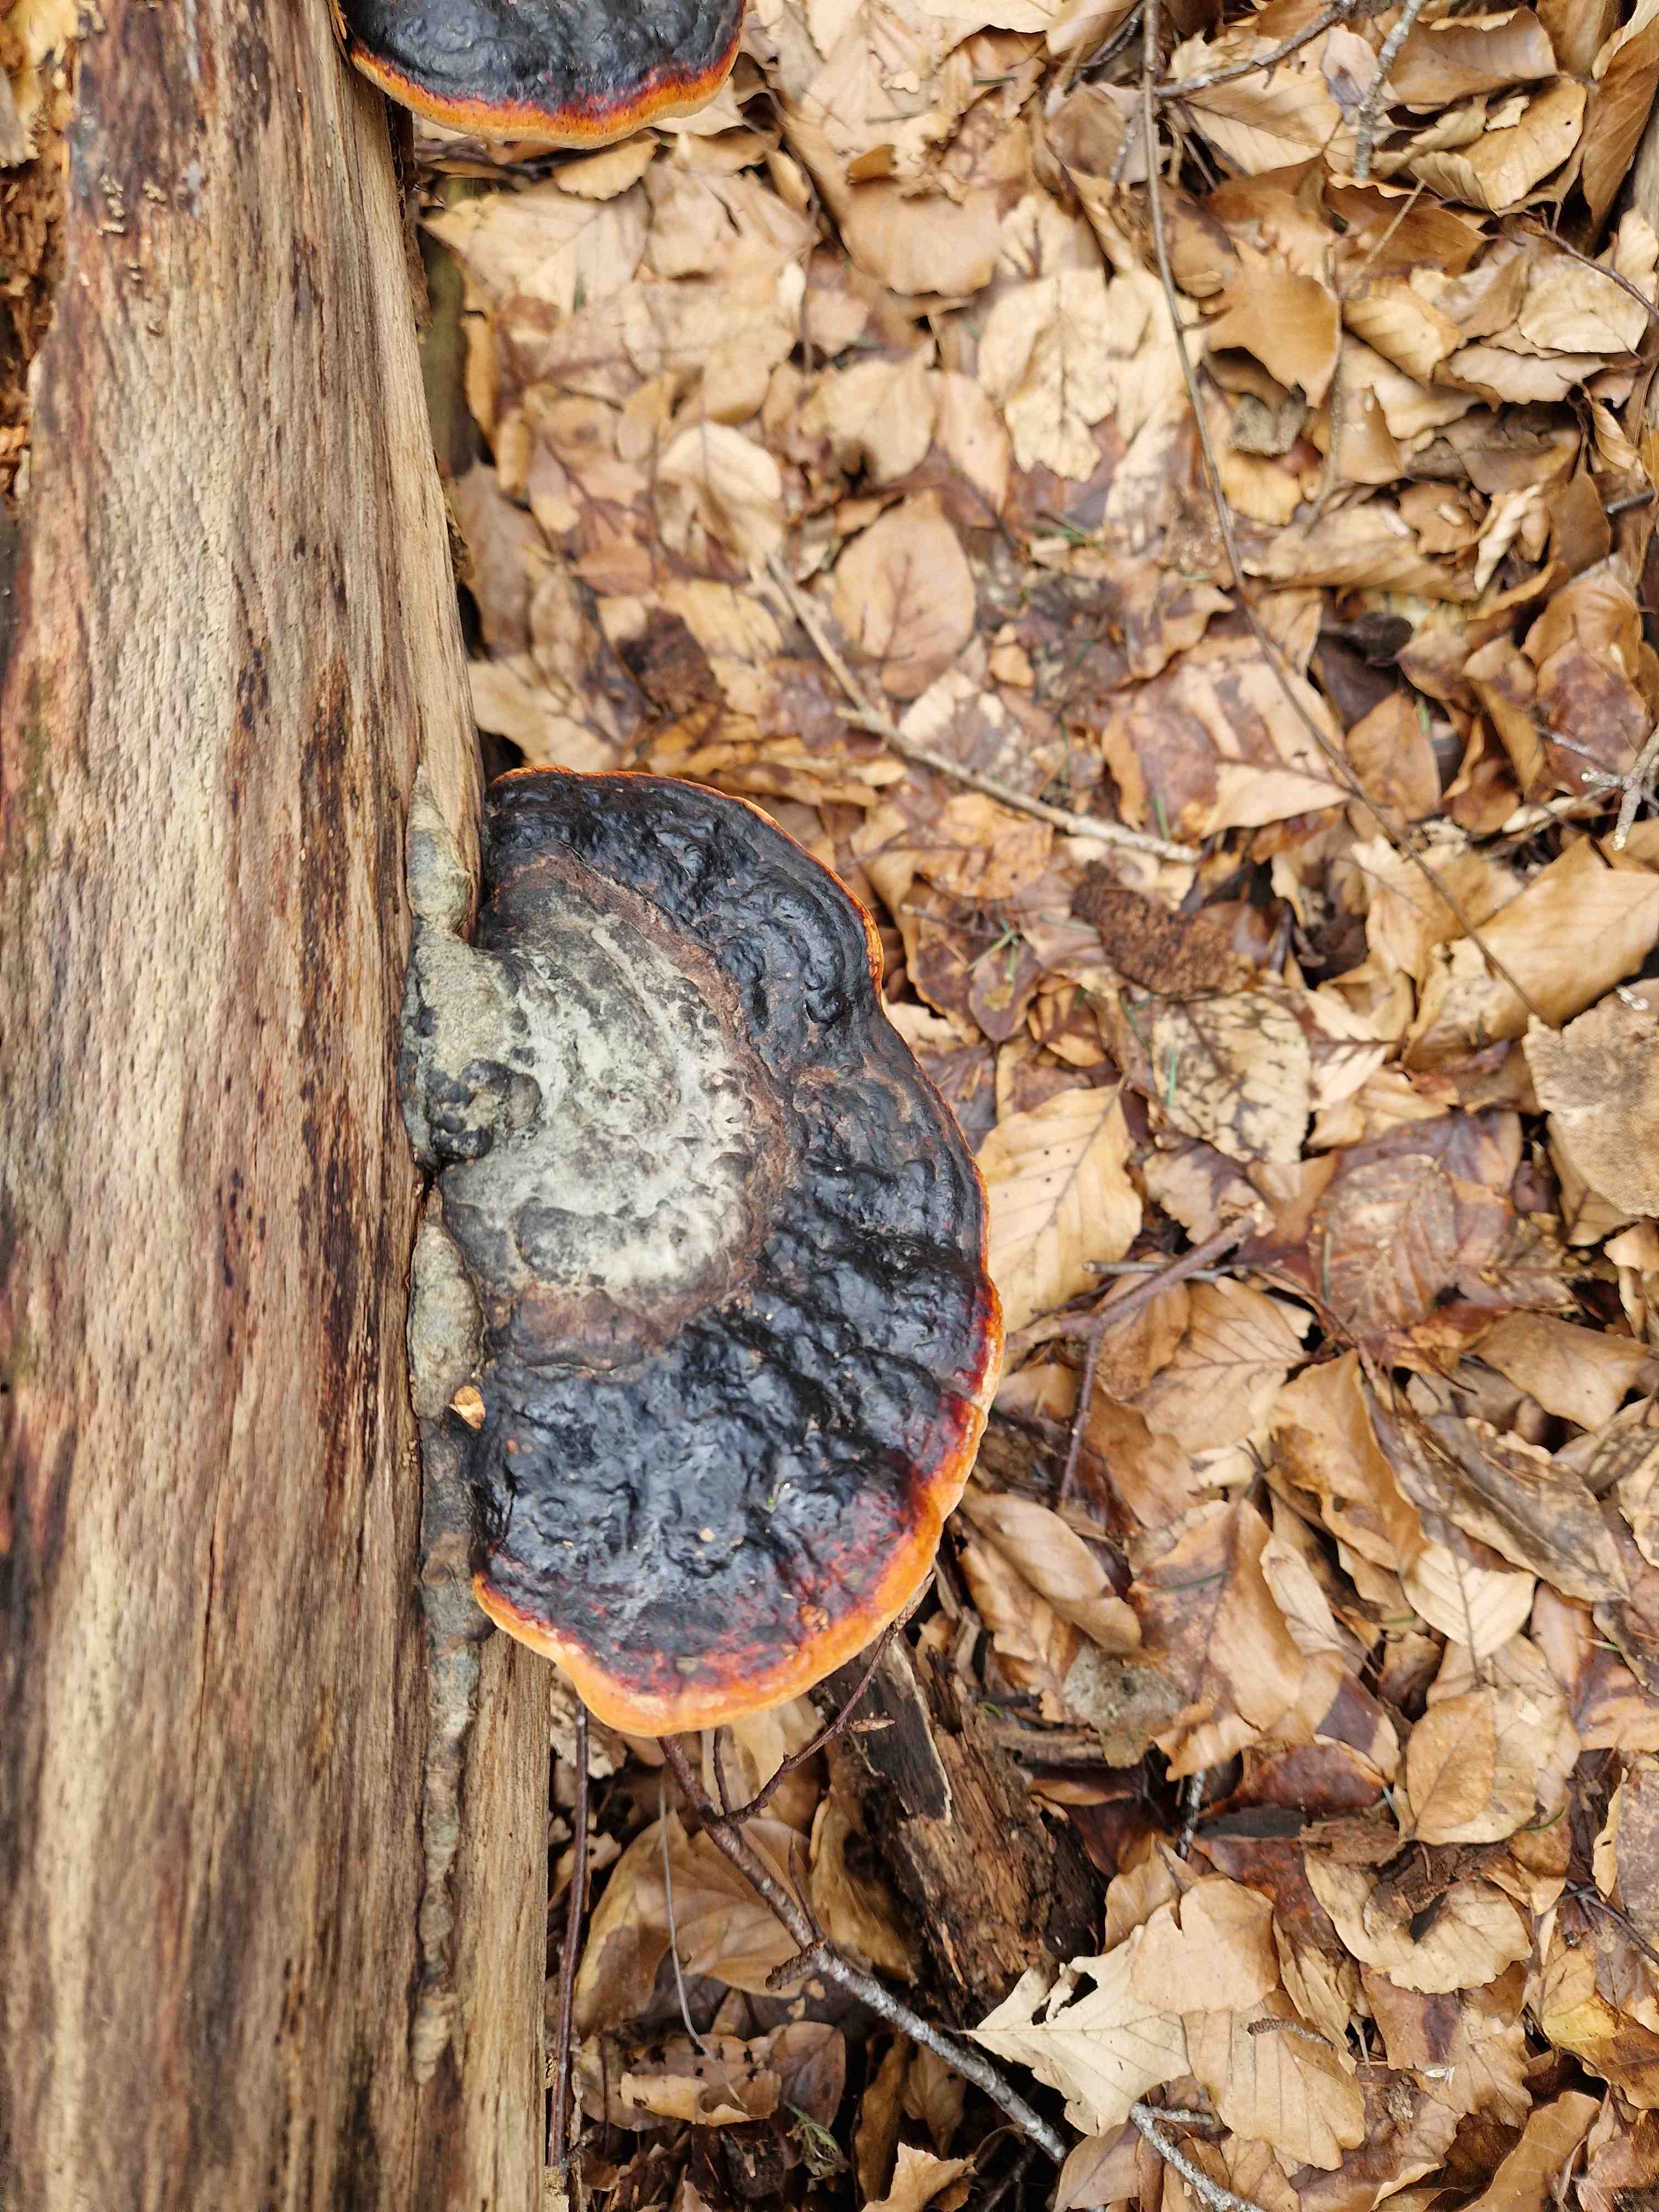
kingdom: Fungi
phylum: Basidiomycota
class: Agaricomycetes
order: Polyporales
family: Fomitopsidaceae
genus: Fomitopsis
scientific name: Fomitopsis pinicola
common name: randbæltet hovporesvamp
